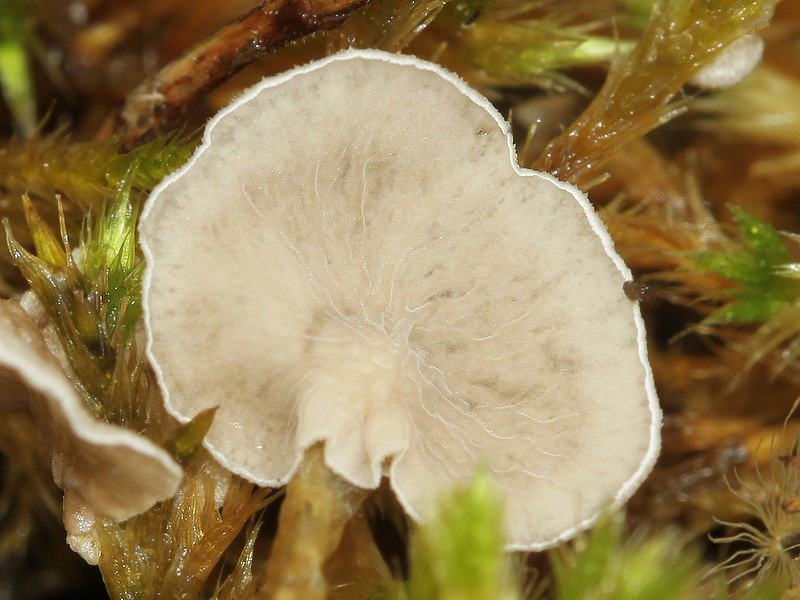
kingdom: Fungi
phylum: Basidiomycota
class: Agaricomycetes
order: Agaricales
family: Hygrophoraceae
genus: Arrhenia
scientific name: Arrhenia retiruga
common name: lille fontænehat
